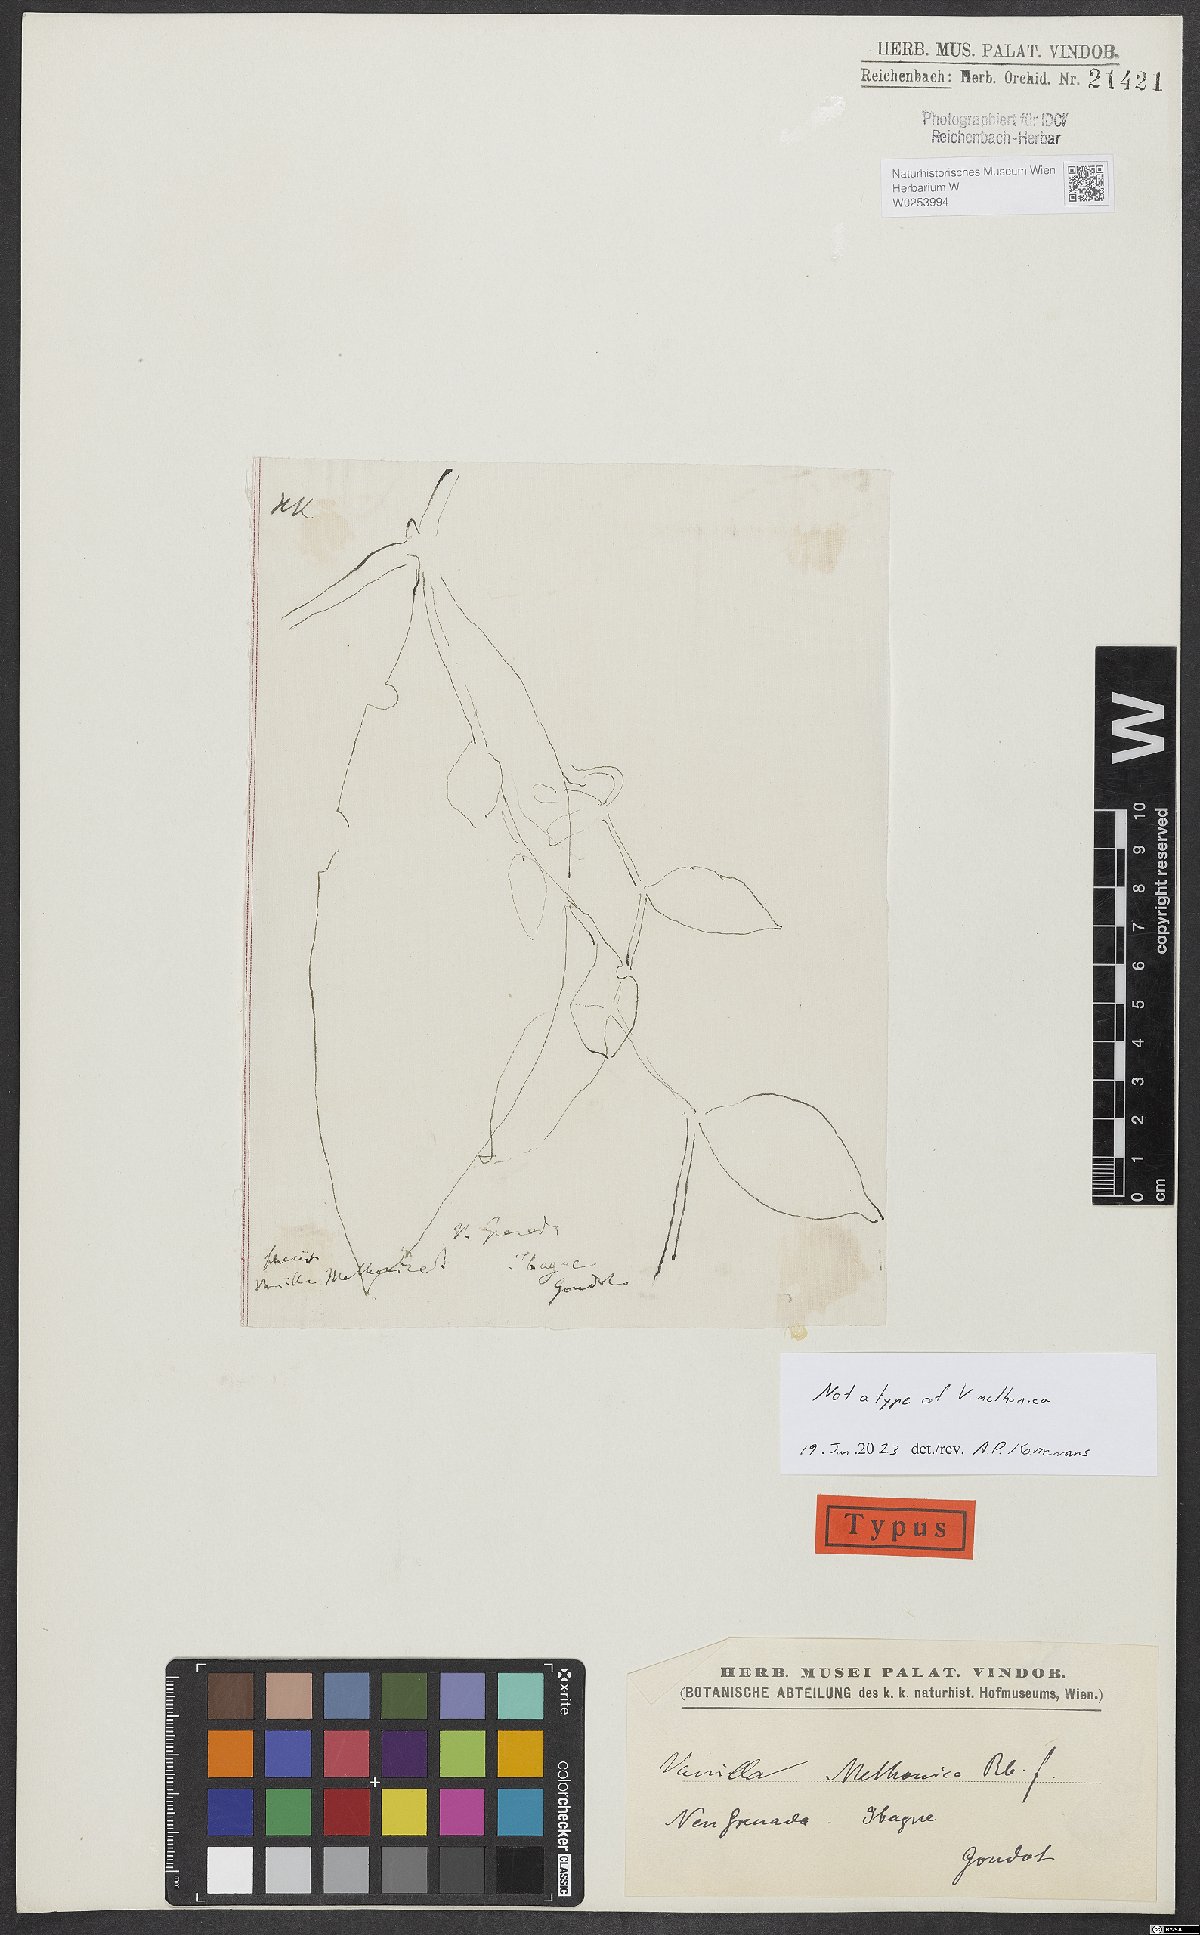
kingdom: Plantae
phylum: Tracheophyta
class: Liliopsida
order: Asparagales
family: Orchidaceae
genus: Vanilla
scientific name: Vanilla
